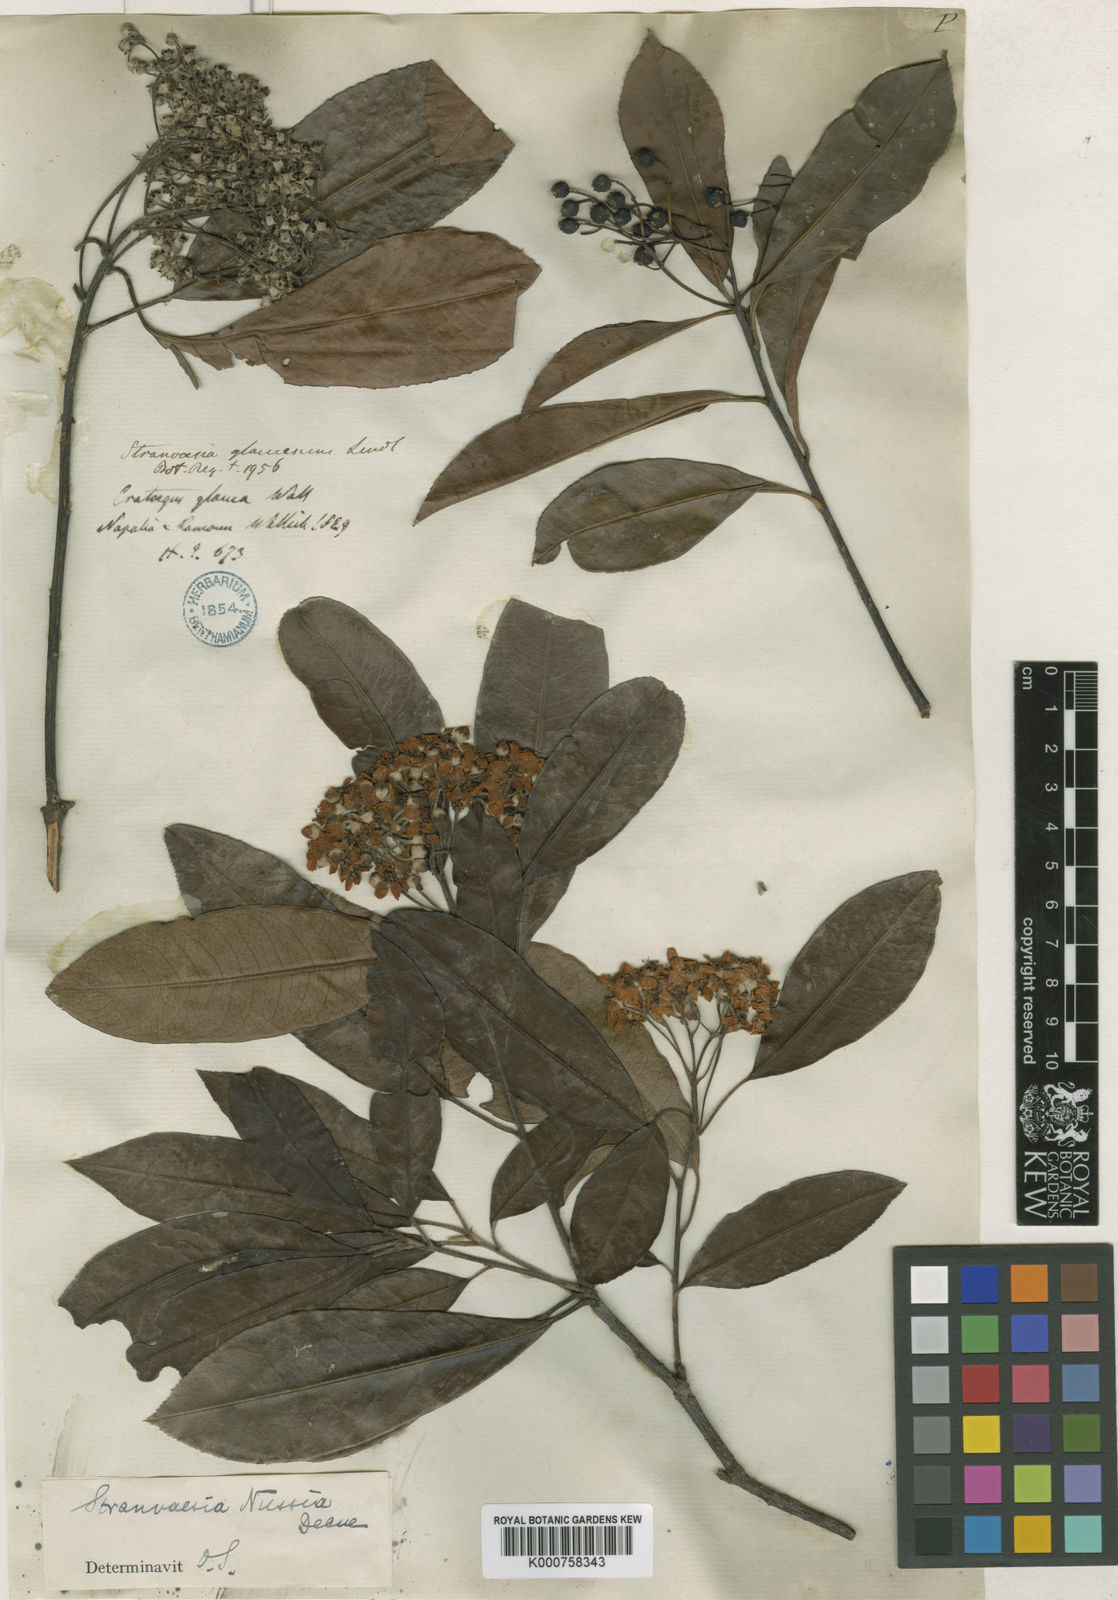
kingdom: Plantae
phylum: Tracheophyta
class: Magnoliopsida
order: Rosales
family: Rosaceae
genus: Stranvaesia
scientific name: Stranvaesia nussia
